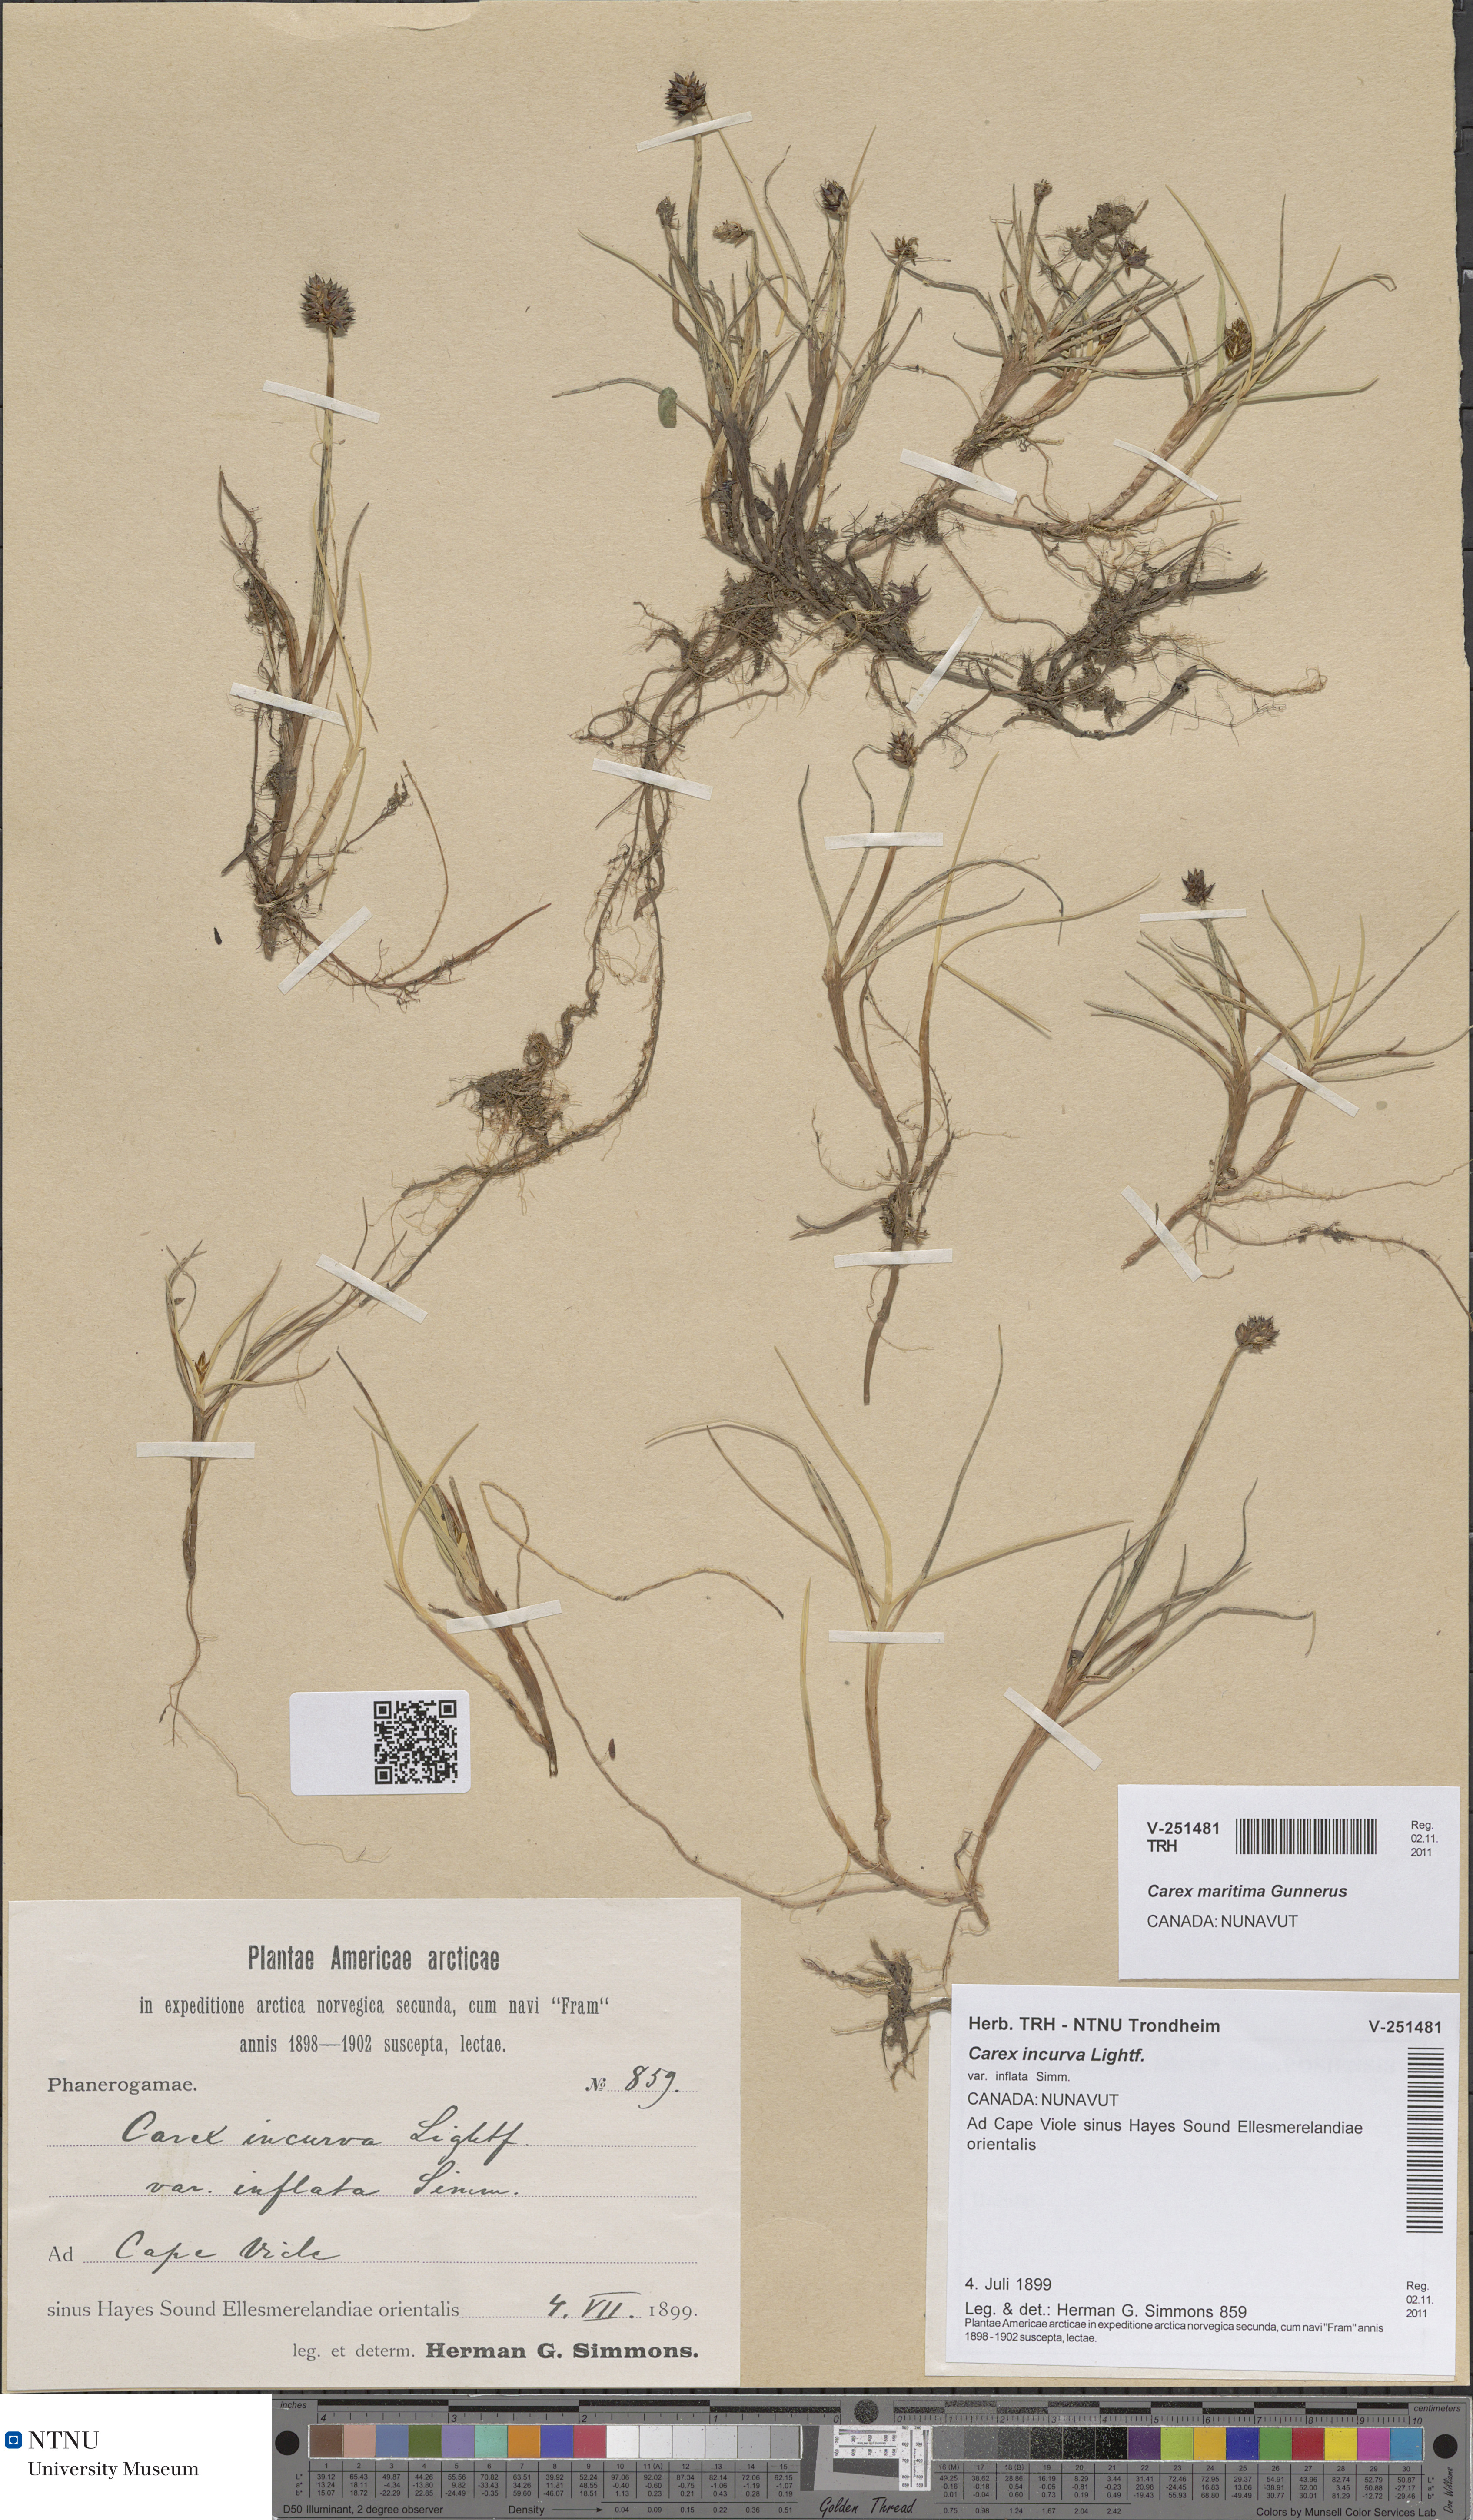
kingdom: Plantae
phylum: Tracheophyta
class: Liliopsida
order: Poales
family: Cyperaceae
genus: Carex
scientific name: Carex maritima
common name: Curved sedge
